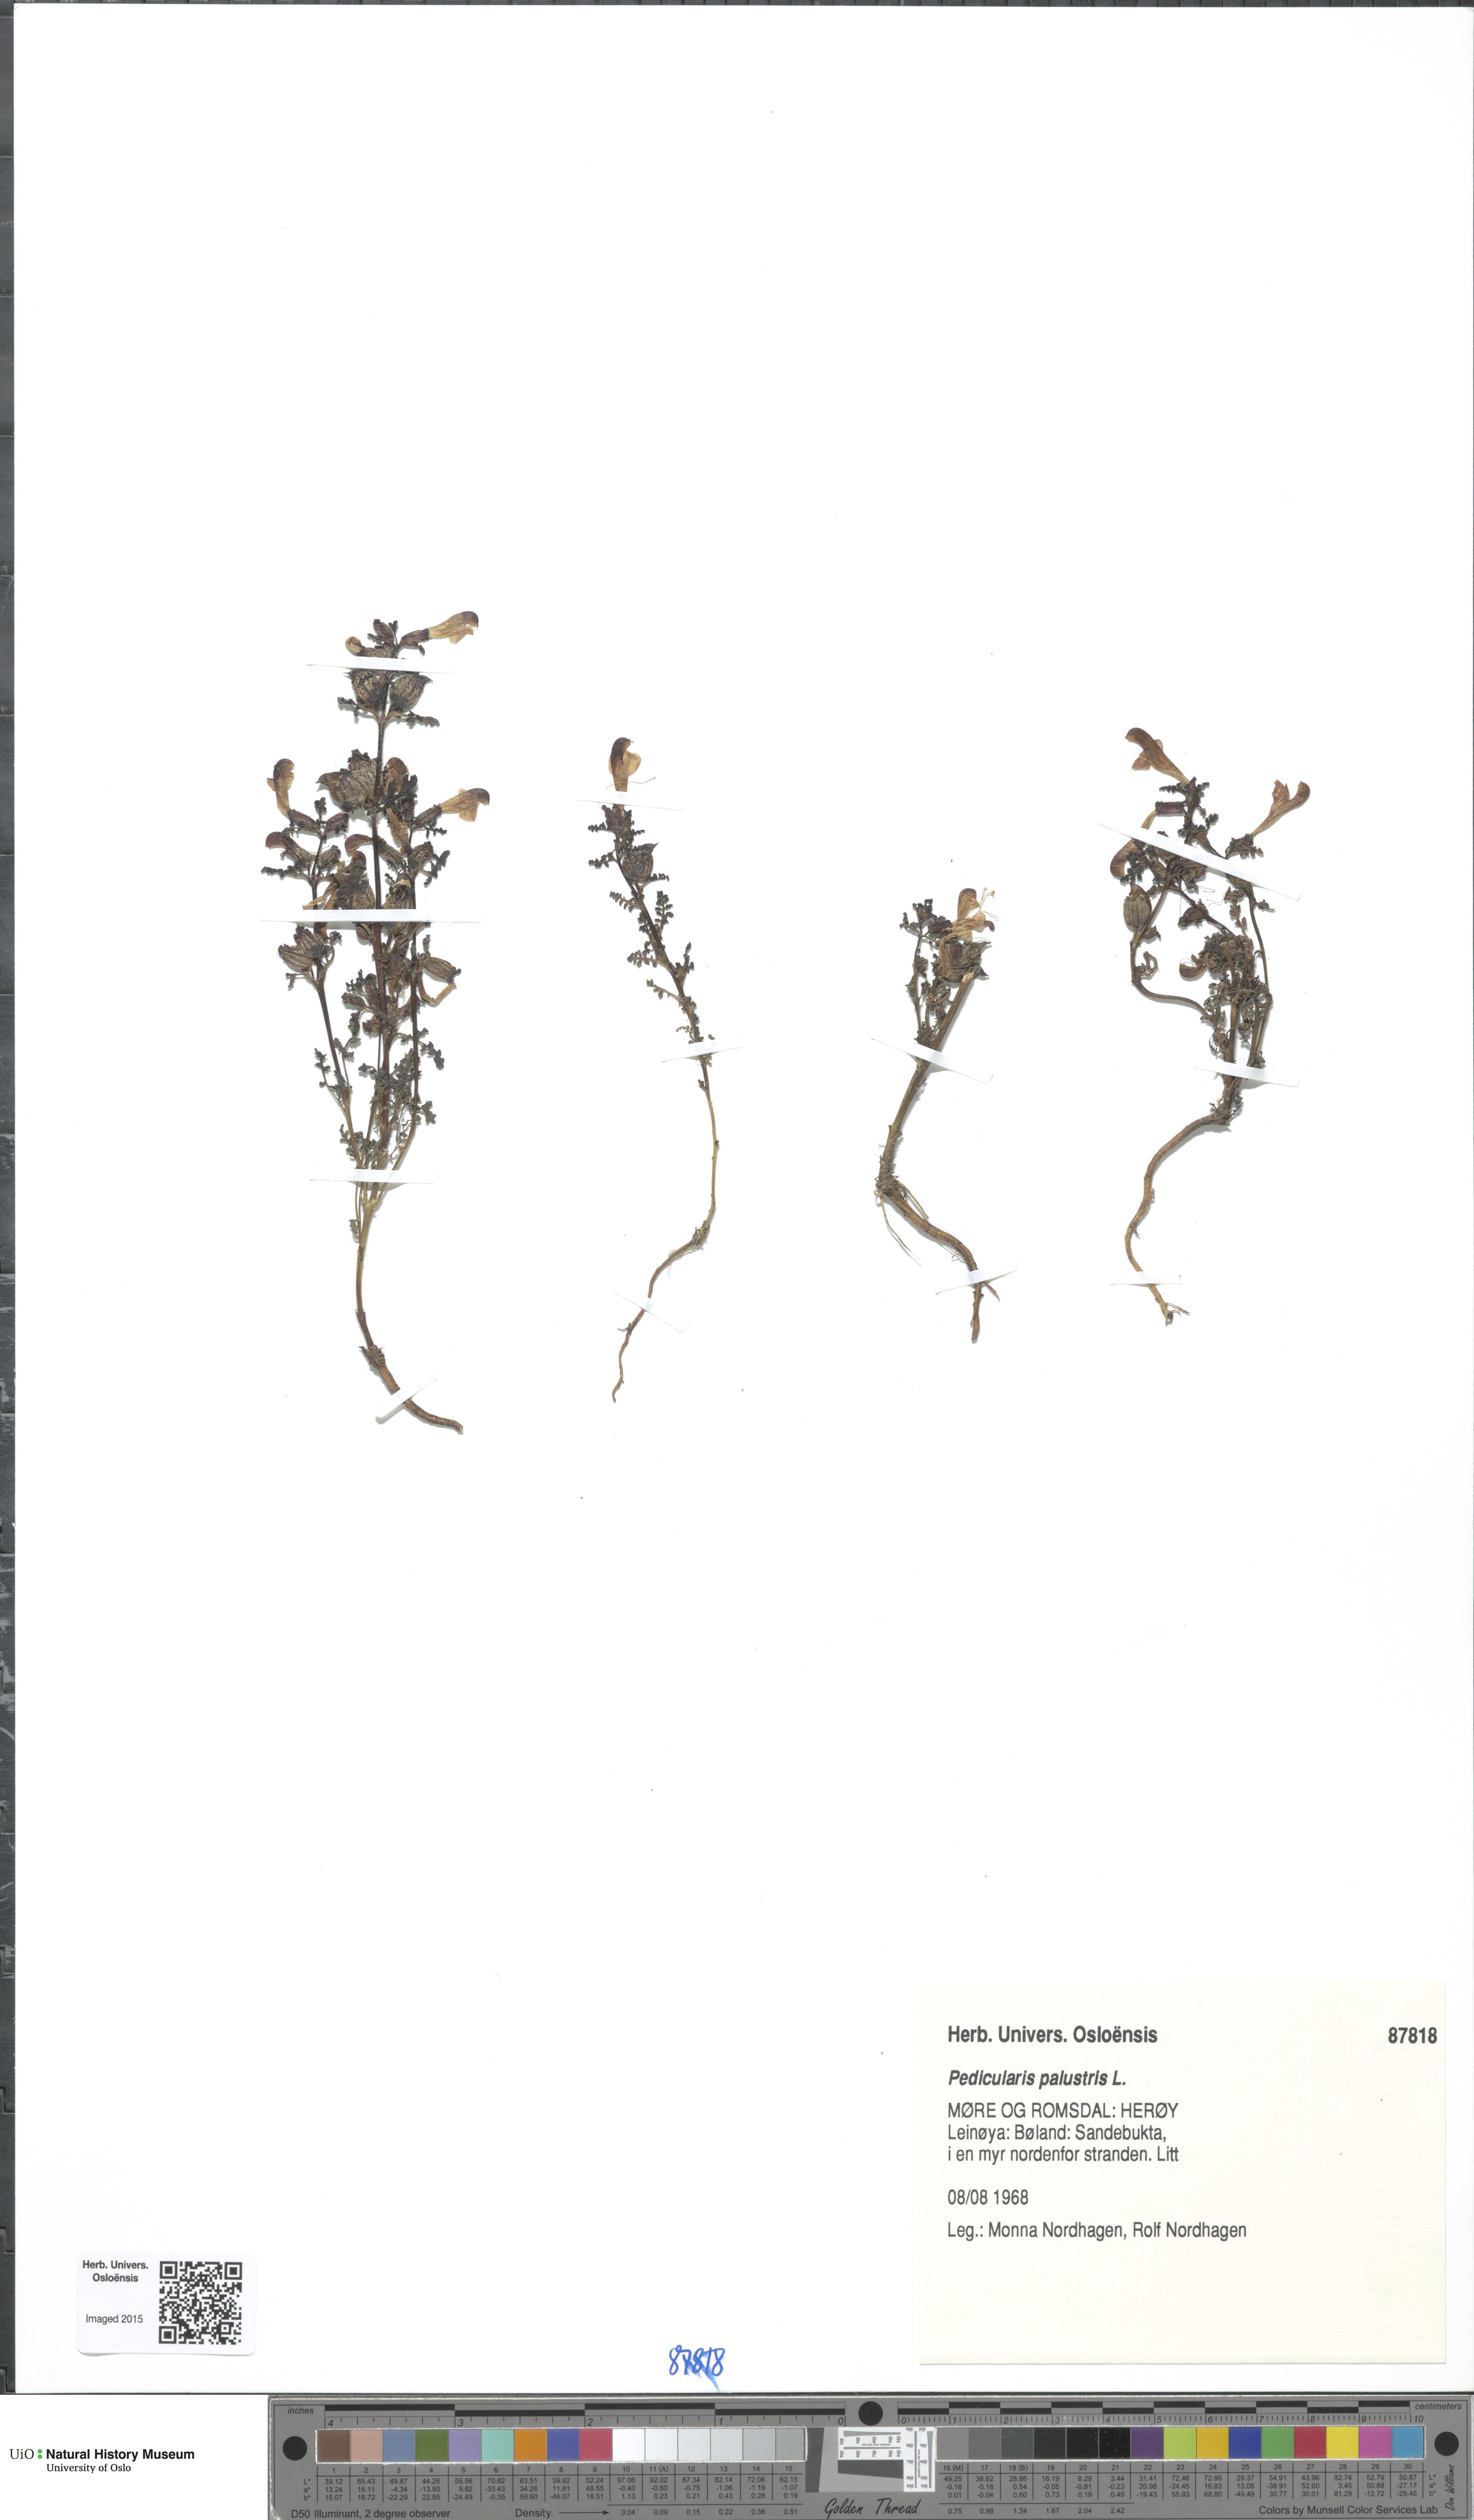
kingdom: Plantae
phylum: Tracheophyta
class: Magnoliopsida
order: Lamiales
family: Orobanchaceae
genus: Pedicularis
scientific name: Pedicularis palustris
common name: Marsh lousewort
